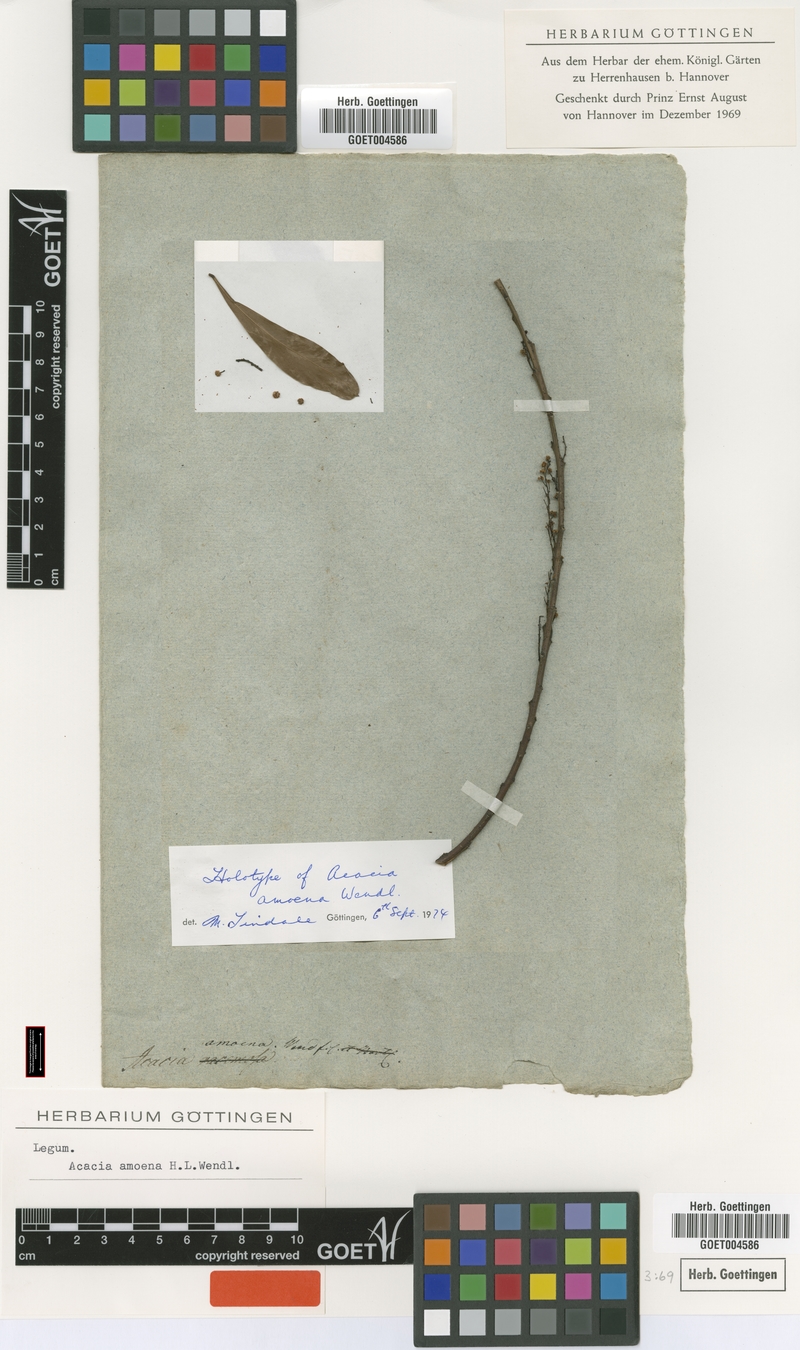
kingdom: Plantae
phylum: Tracheophyta
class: Magnoliopsida
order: Fabales
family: Fabaceae
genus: Acacia
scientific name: Acacia amoena
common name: Boomerang wattle
